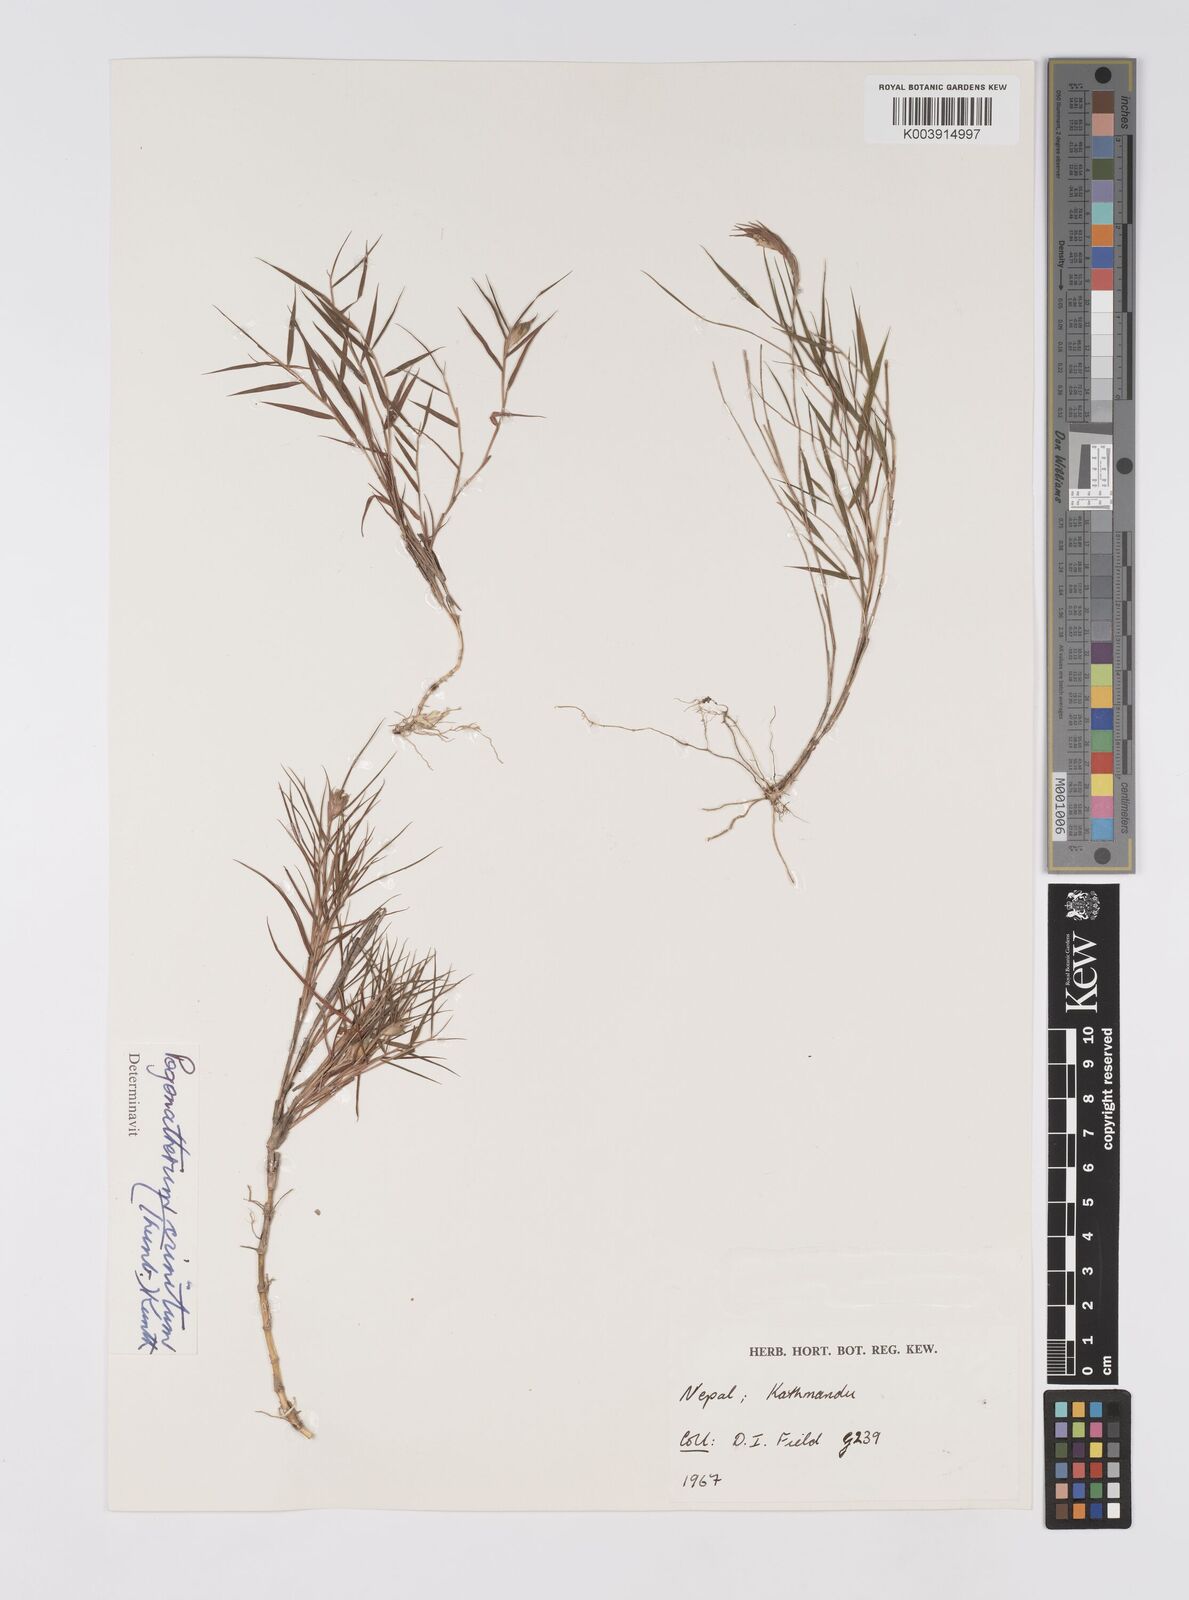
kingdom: Plantae
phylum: Tracheophyta
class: Liliopsida
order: Poales
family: Poaceae
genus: Pogonatherum
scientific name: Pogonatherum crinitum
